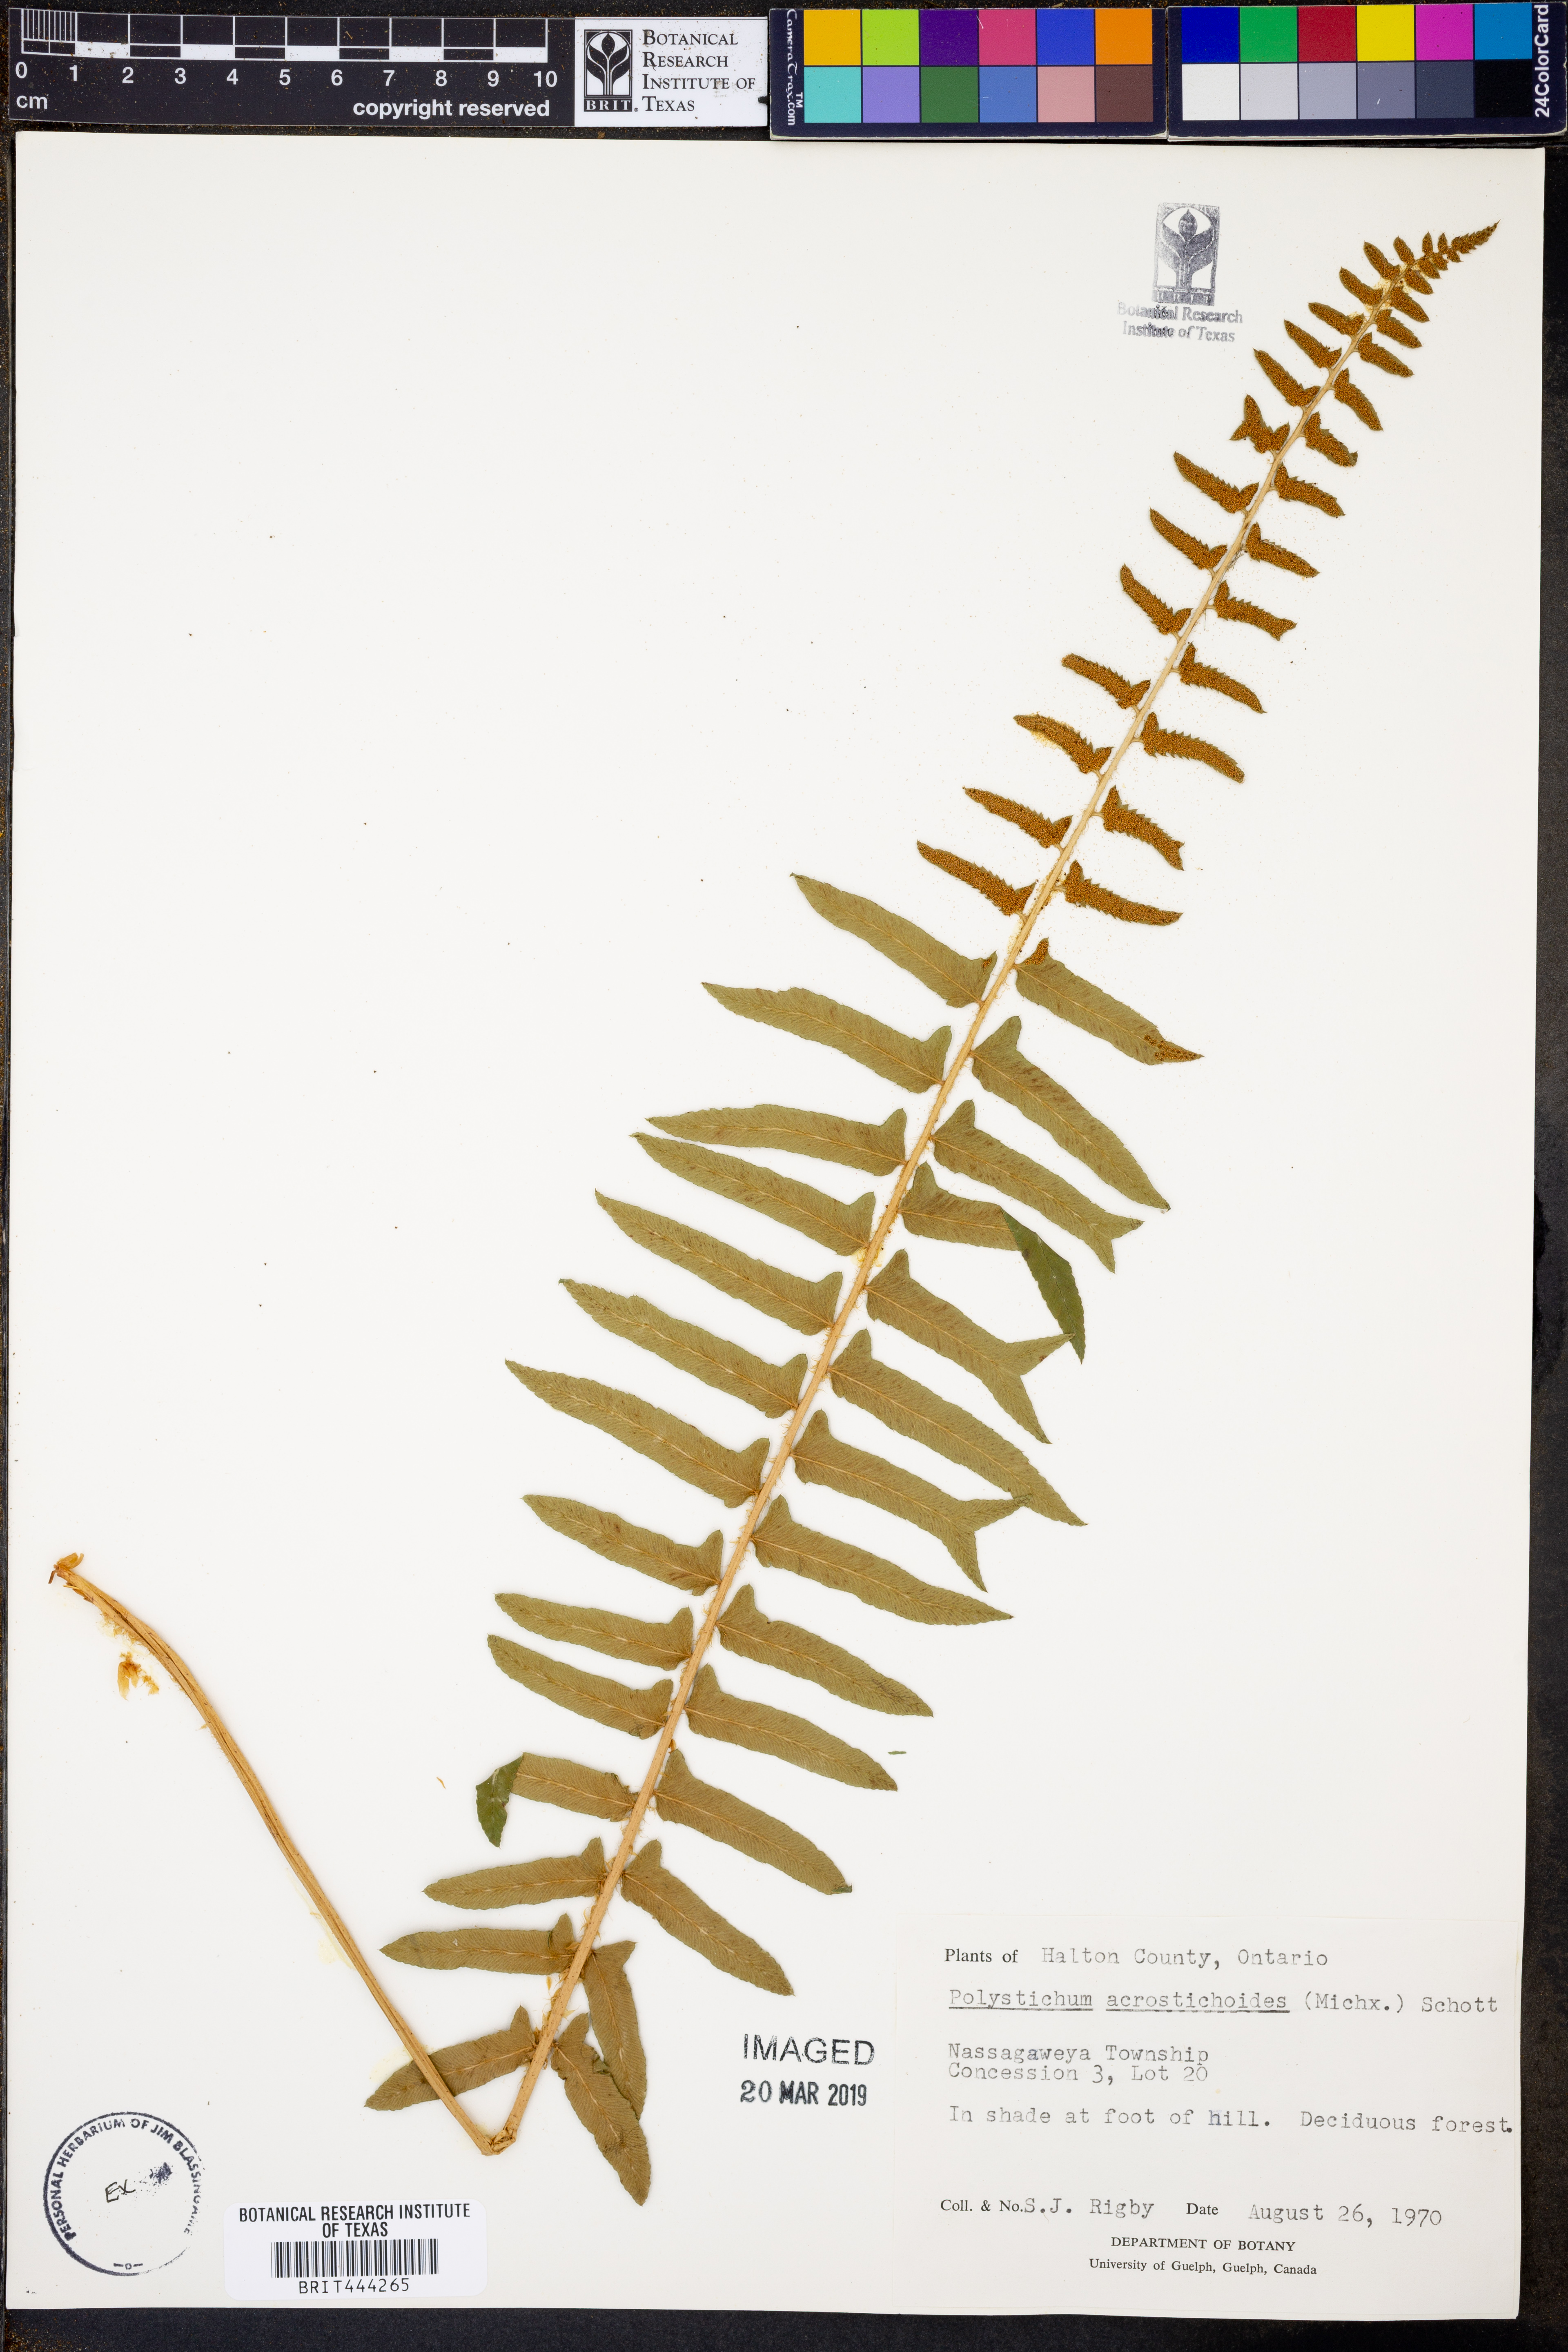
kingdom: Plantae
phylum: Tracheophyta
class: Polypodiopsida
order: Polypodiales
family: Dryopteridaceae
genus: Polystichum
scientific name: Polystichum acrostichoides
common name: Christmas fern
